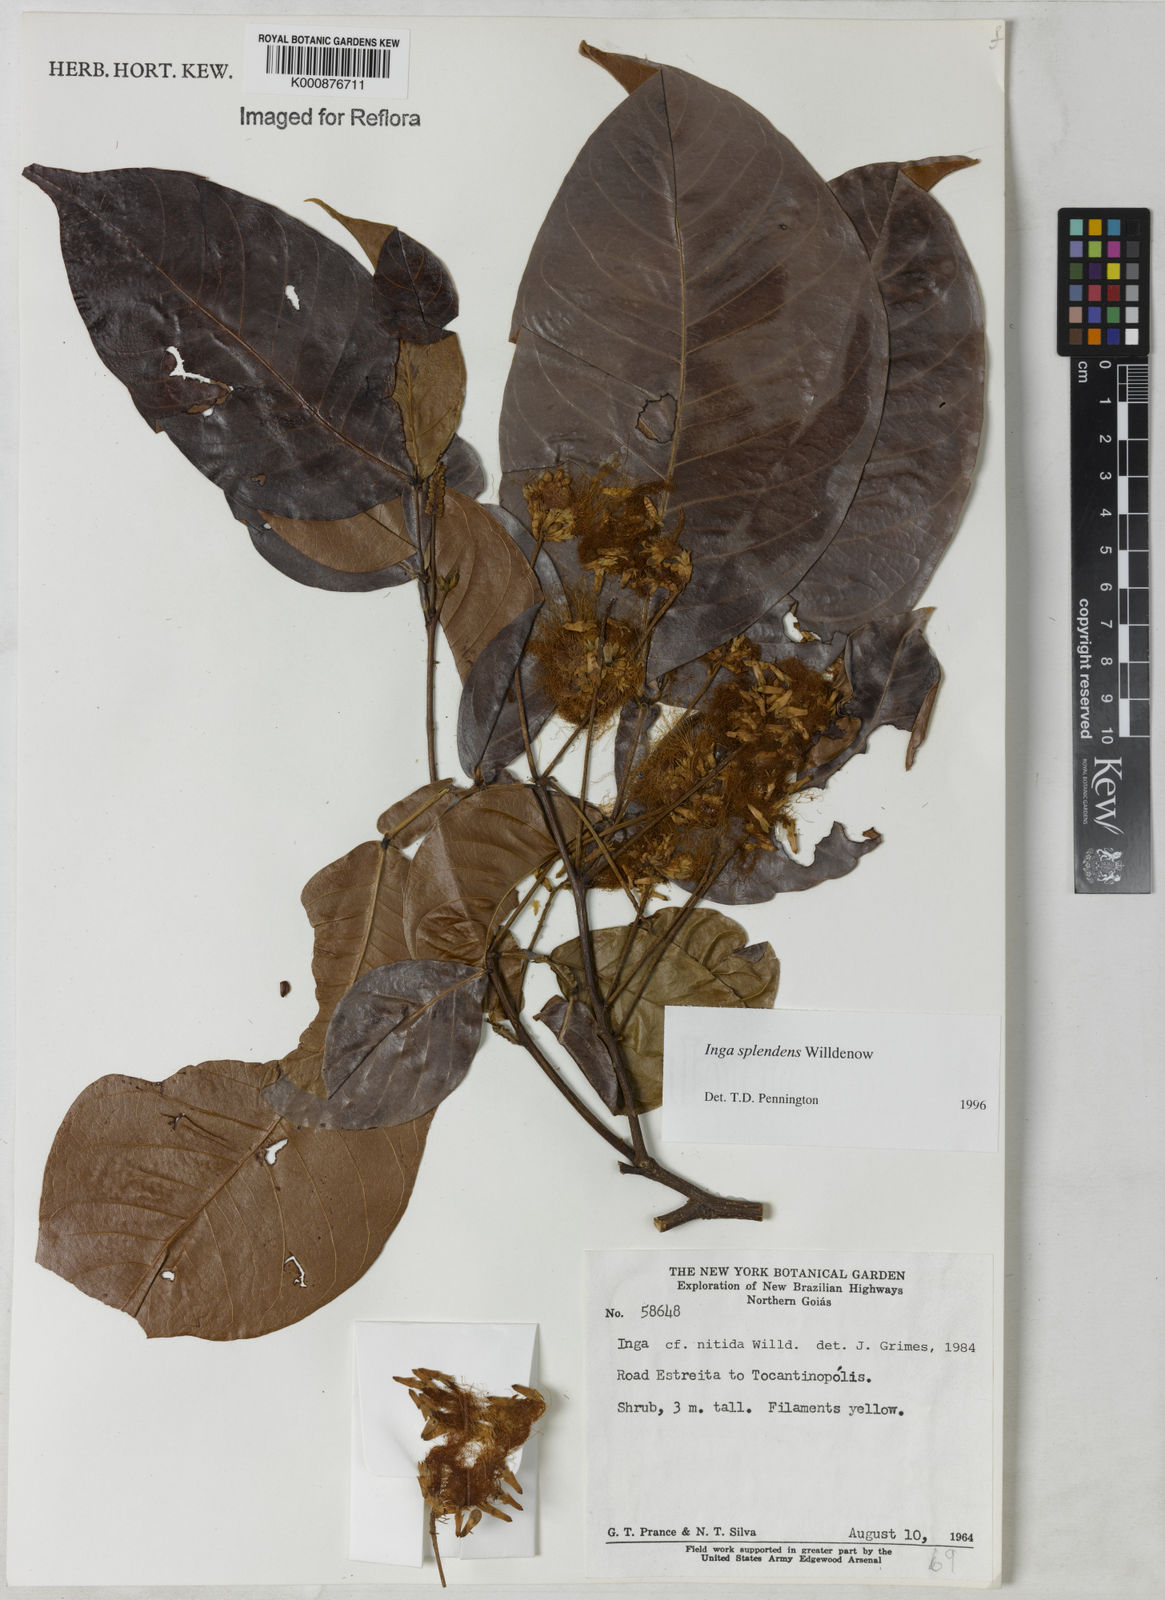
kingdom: Plantae
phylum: Tracheophyta
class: Magnoliopsida
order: Fabales
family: Fabaceae
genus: Inga
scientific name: Inga splendens
